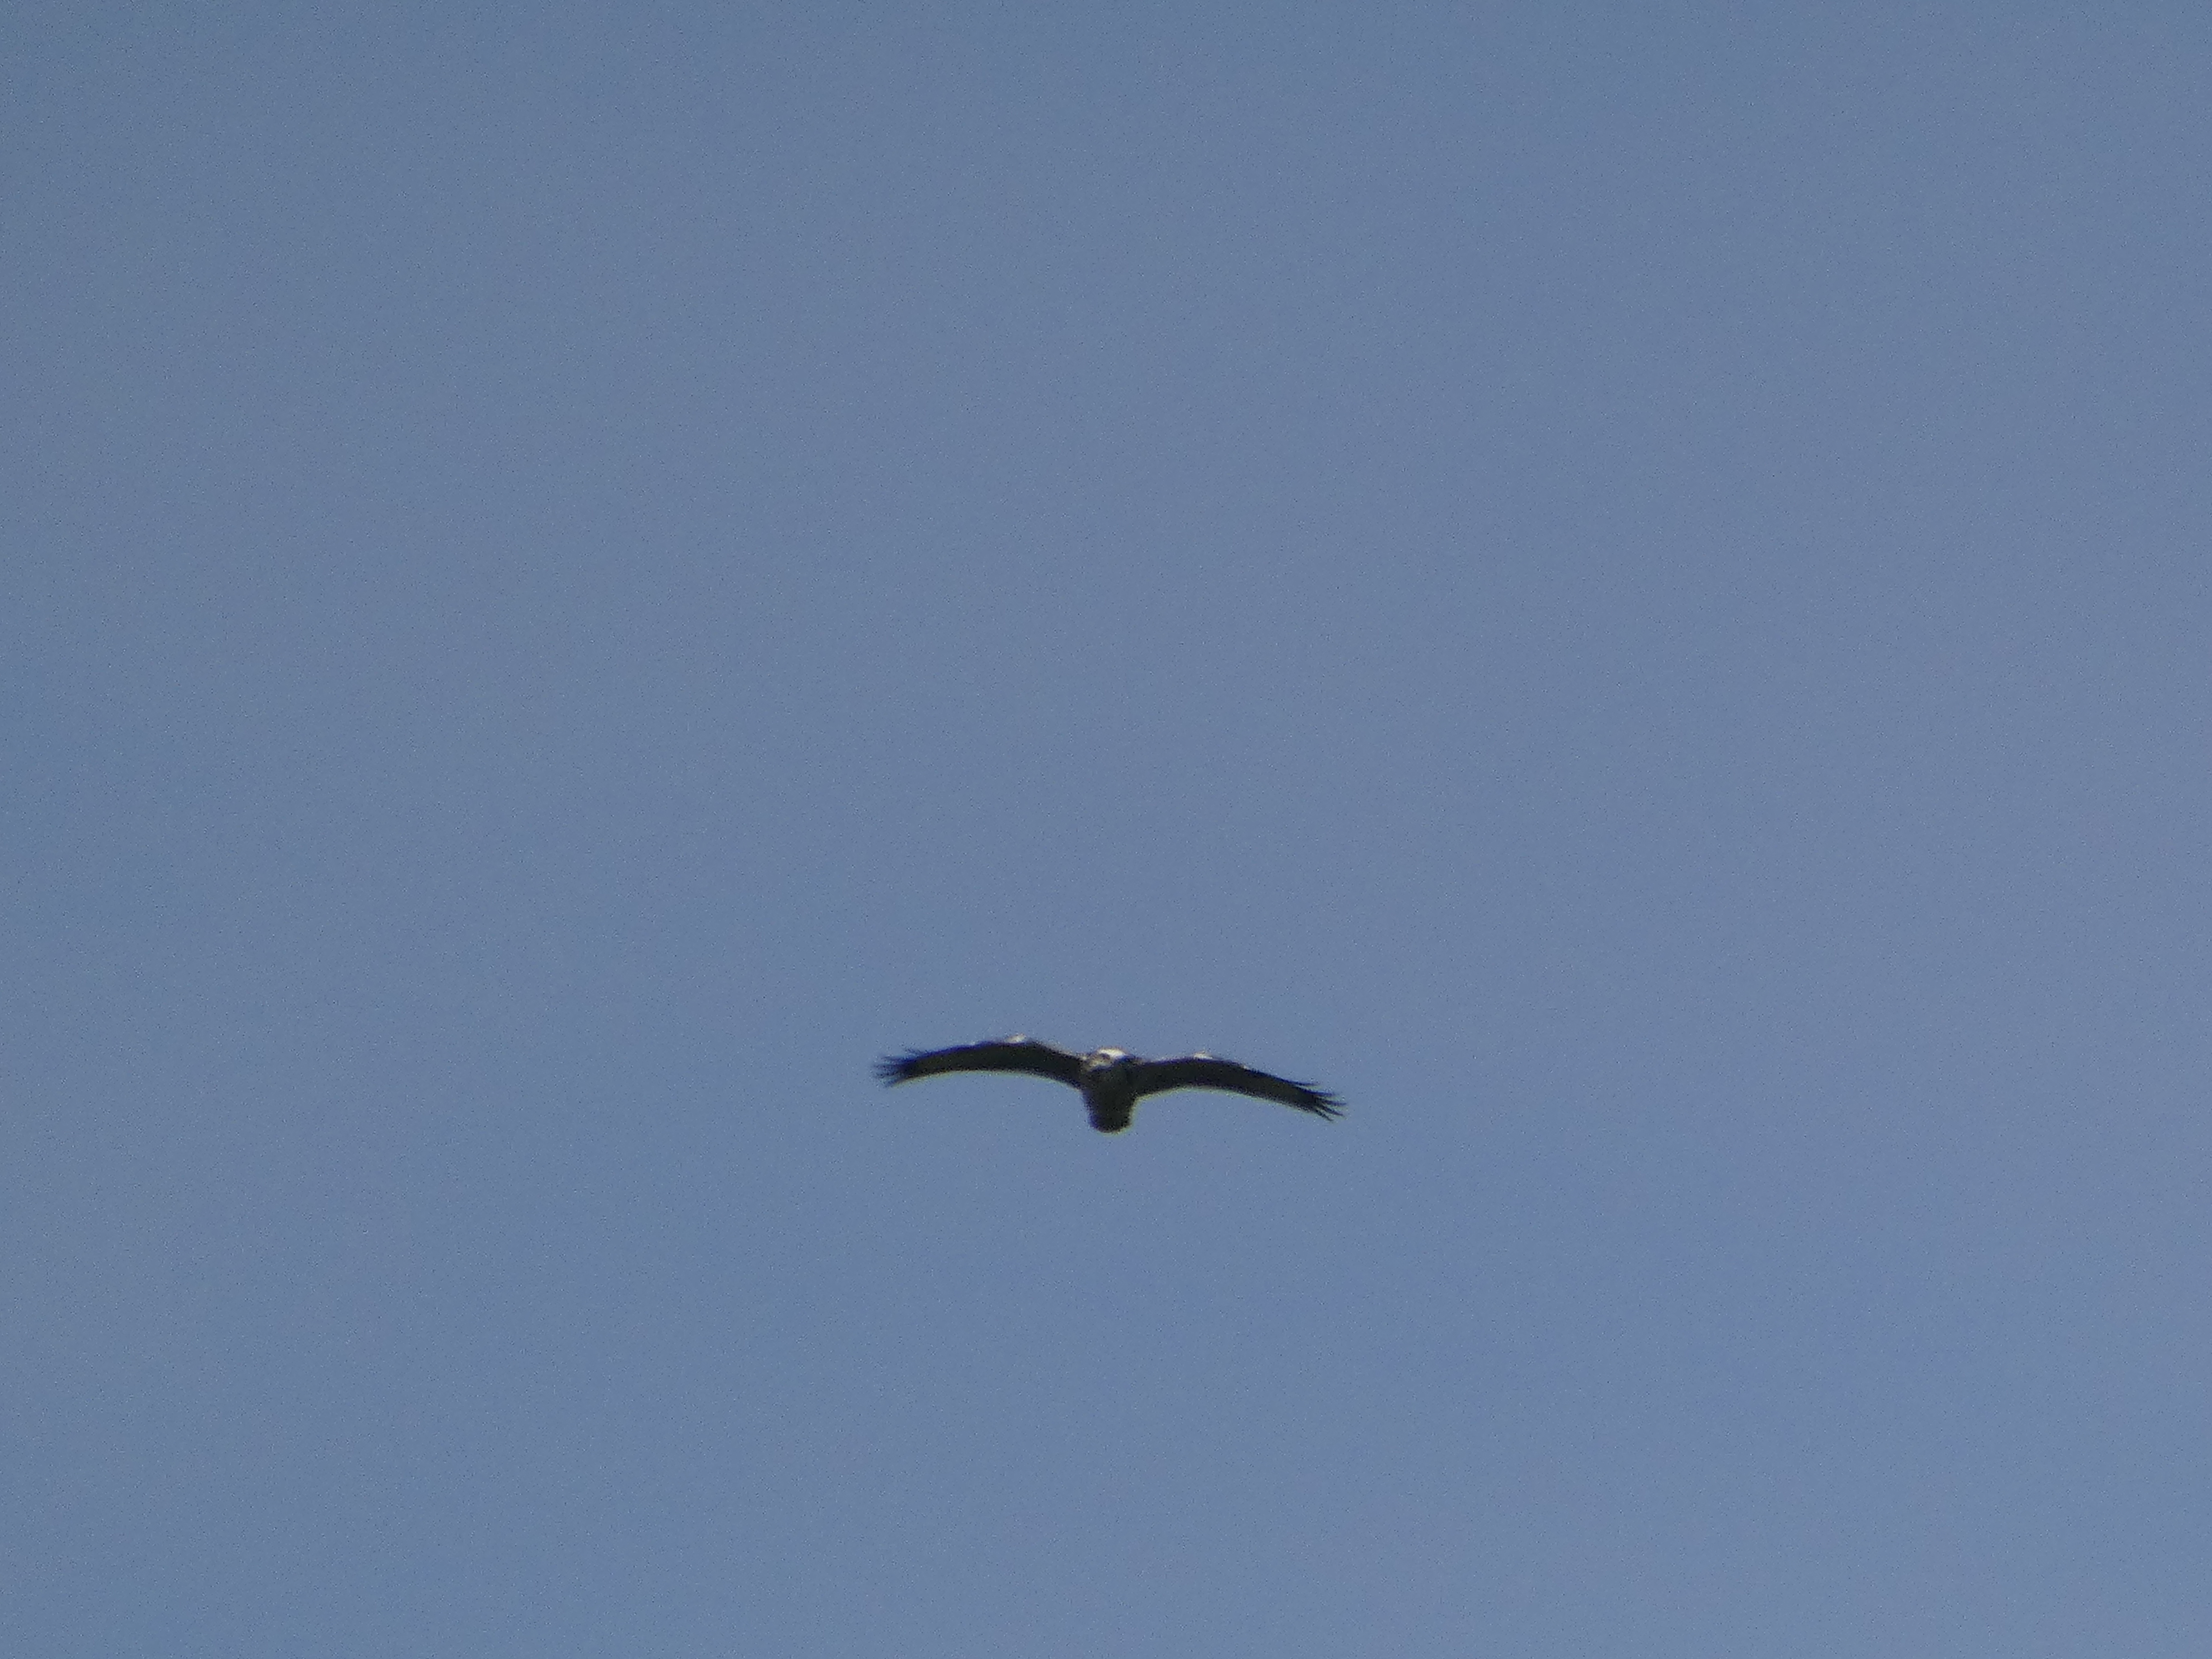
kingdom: Animalia
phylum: Chordata
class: Aves
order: Accipitriformes
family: Accipitridae
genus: Buteo
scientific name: Buteo buteo
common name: Musvåge
